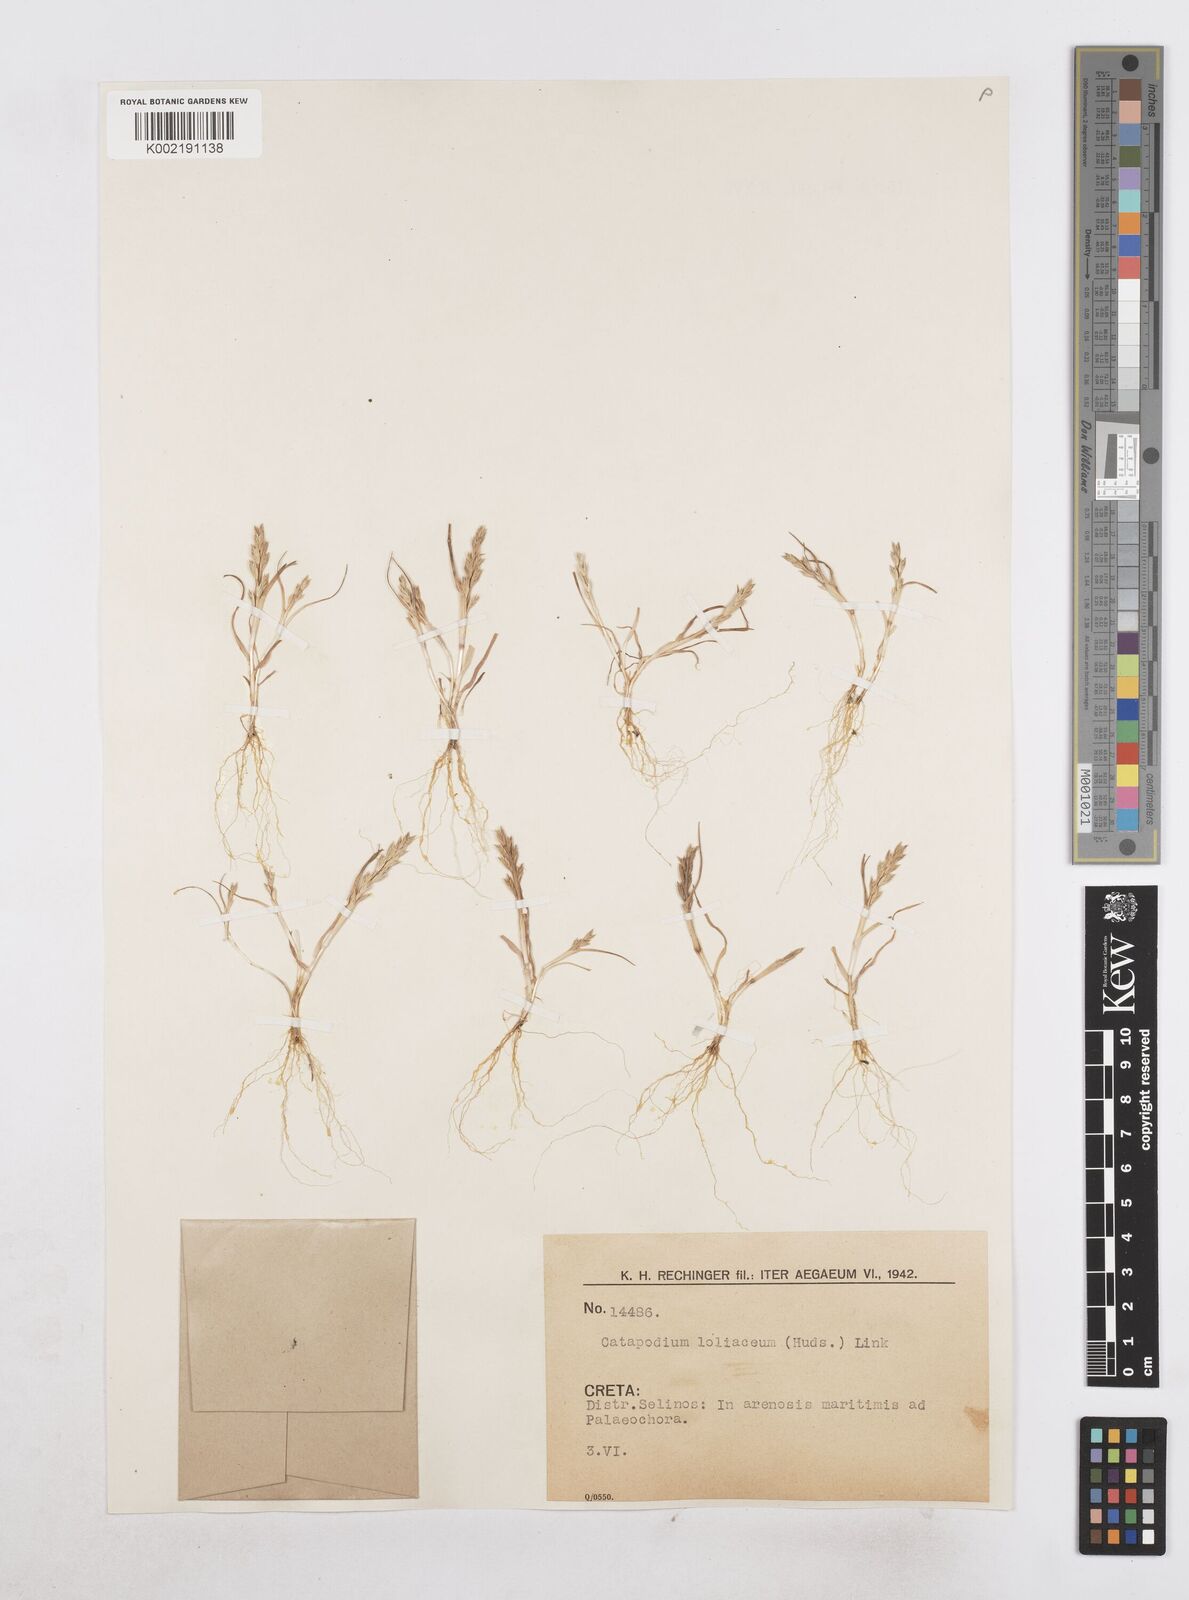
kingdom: Plantae
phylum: Tracheophyta
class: Liliopsida
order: Poales
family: Poaceae
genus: Catapodium
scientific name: Catapodium marinum
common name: Sea fern-grass
